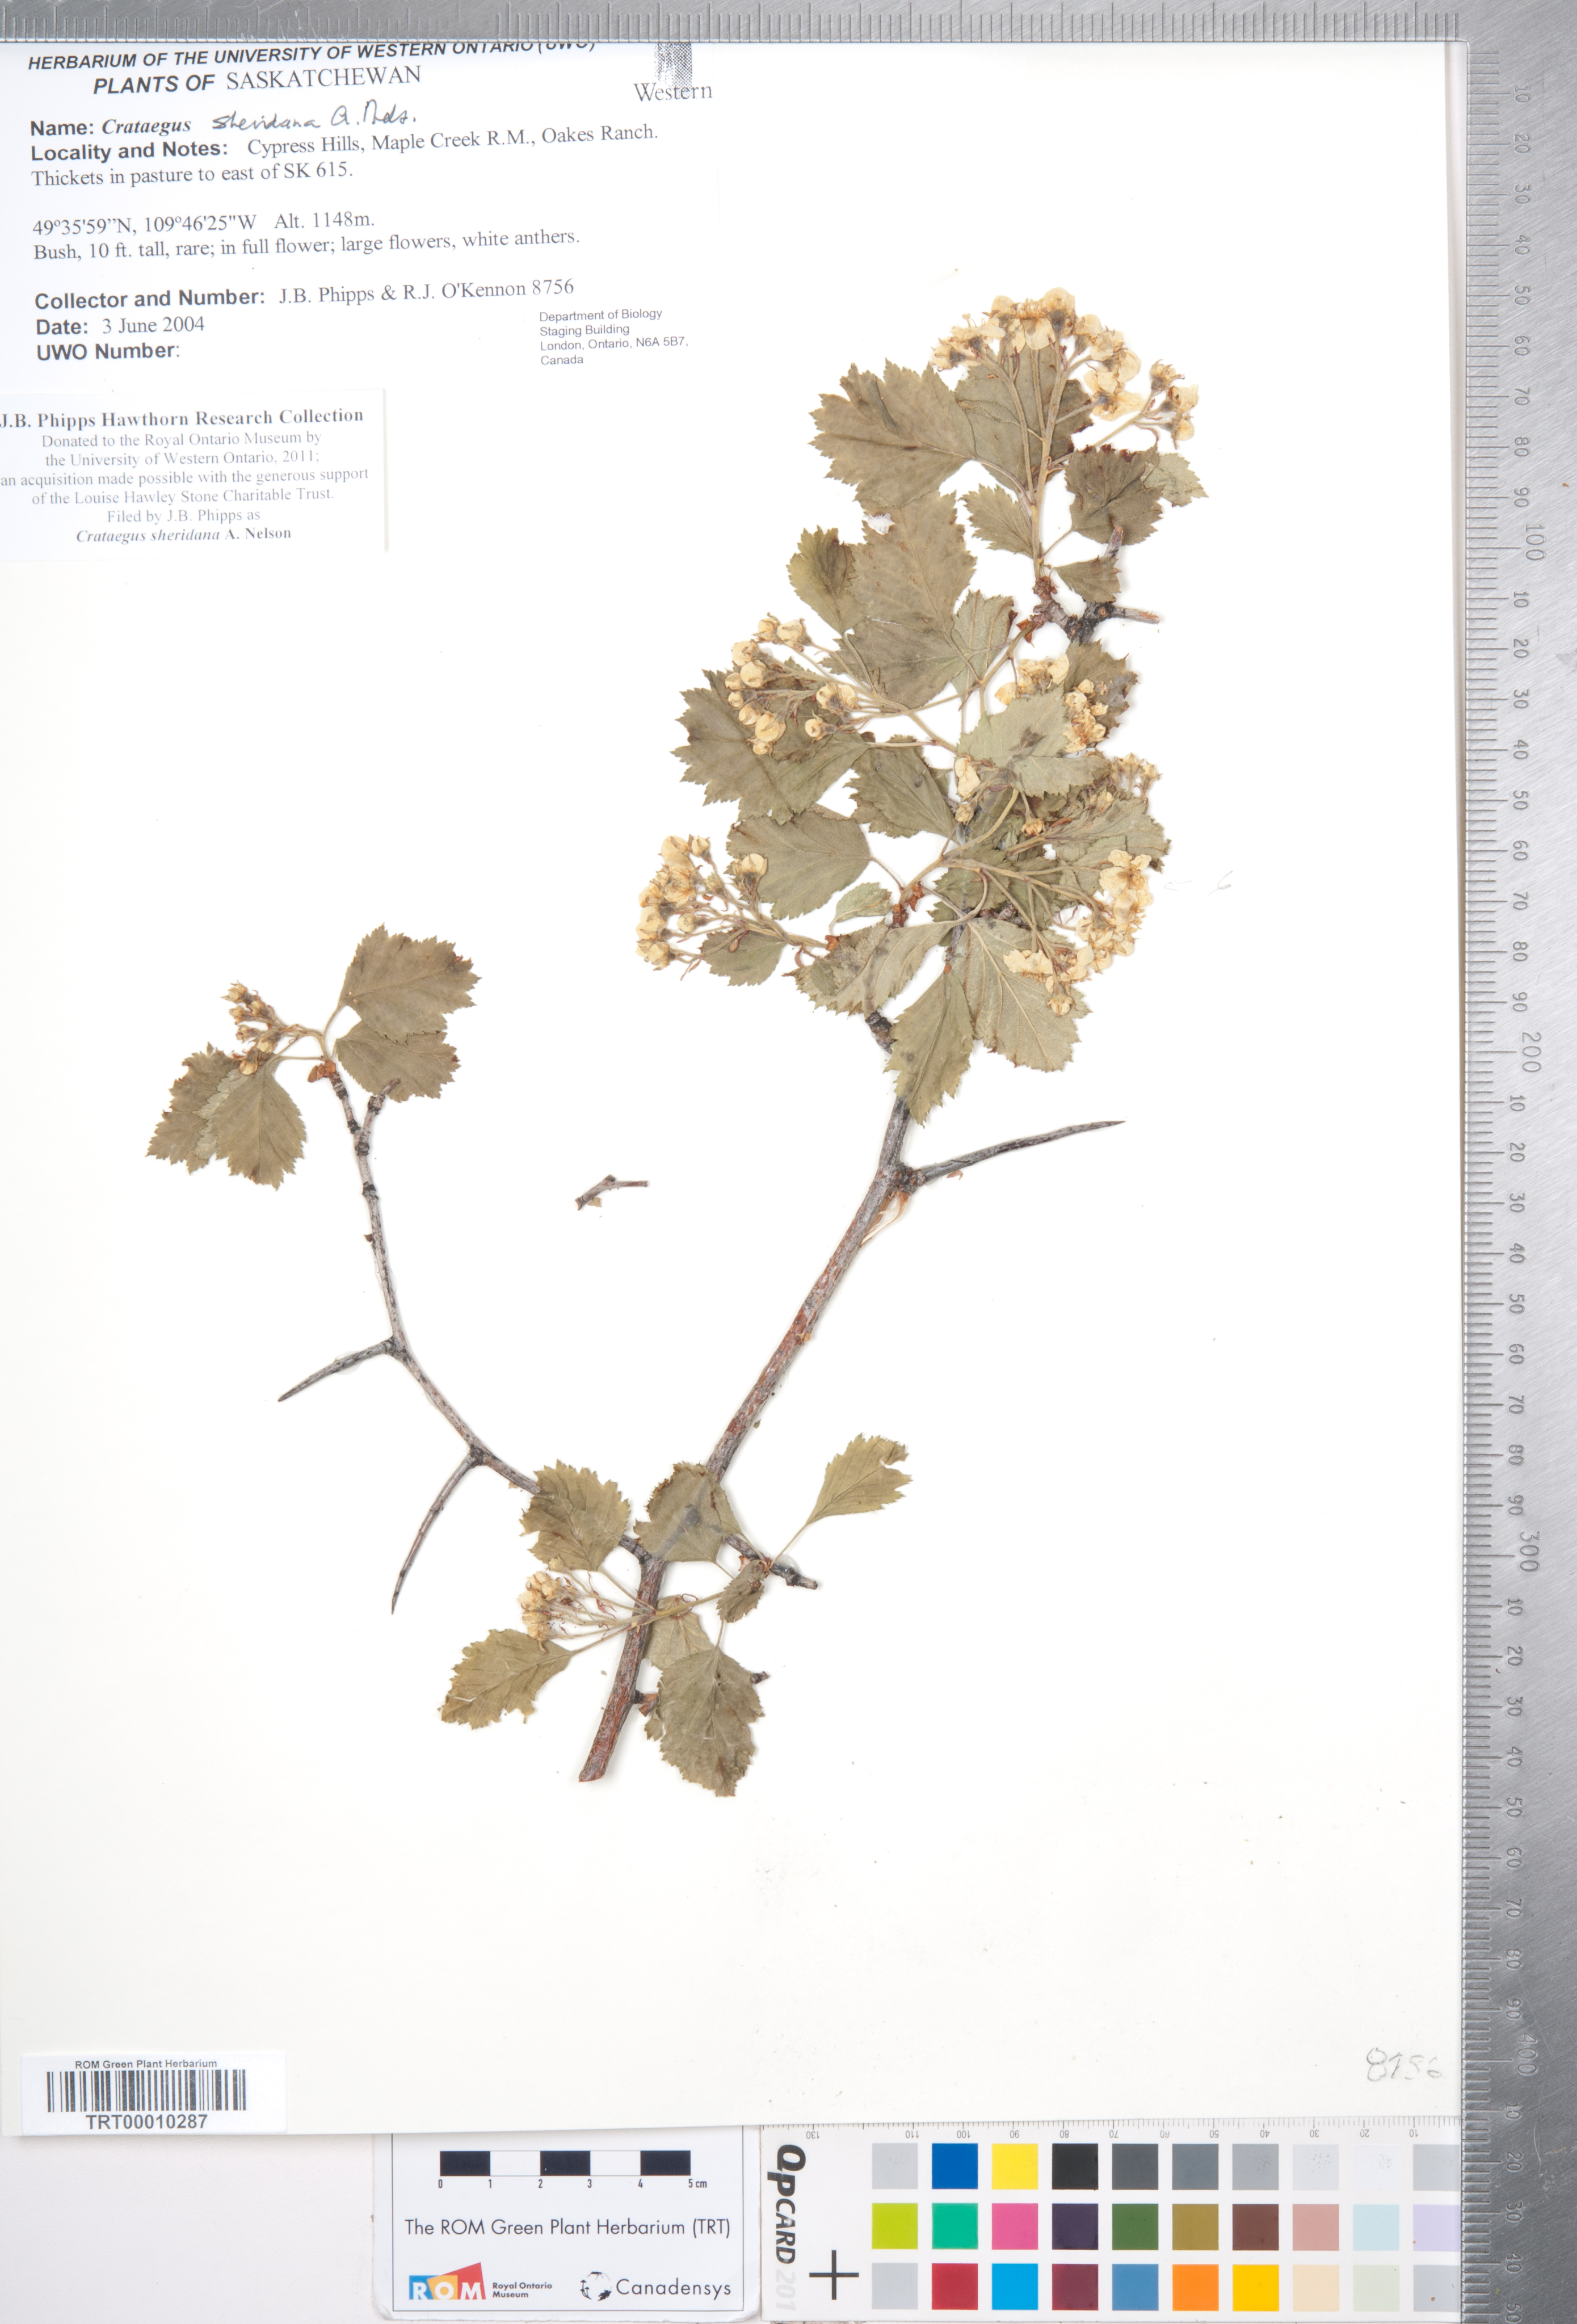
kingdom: Plantae
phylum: Tracheophyta
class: Magnoliopsida
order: Rosales
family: Rosaceae
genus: Crataegus
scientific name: Crataegus chrysocarpa
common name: Fire-berry hawthorn
